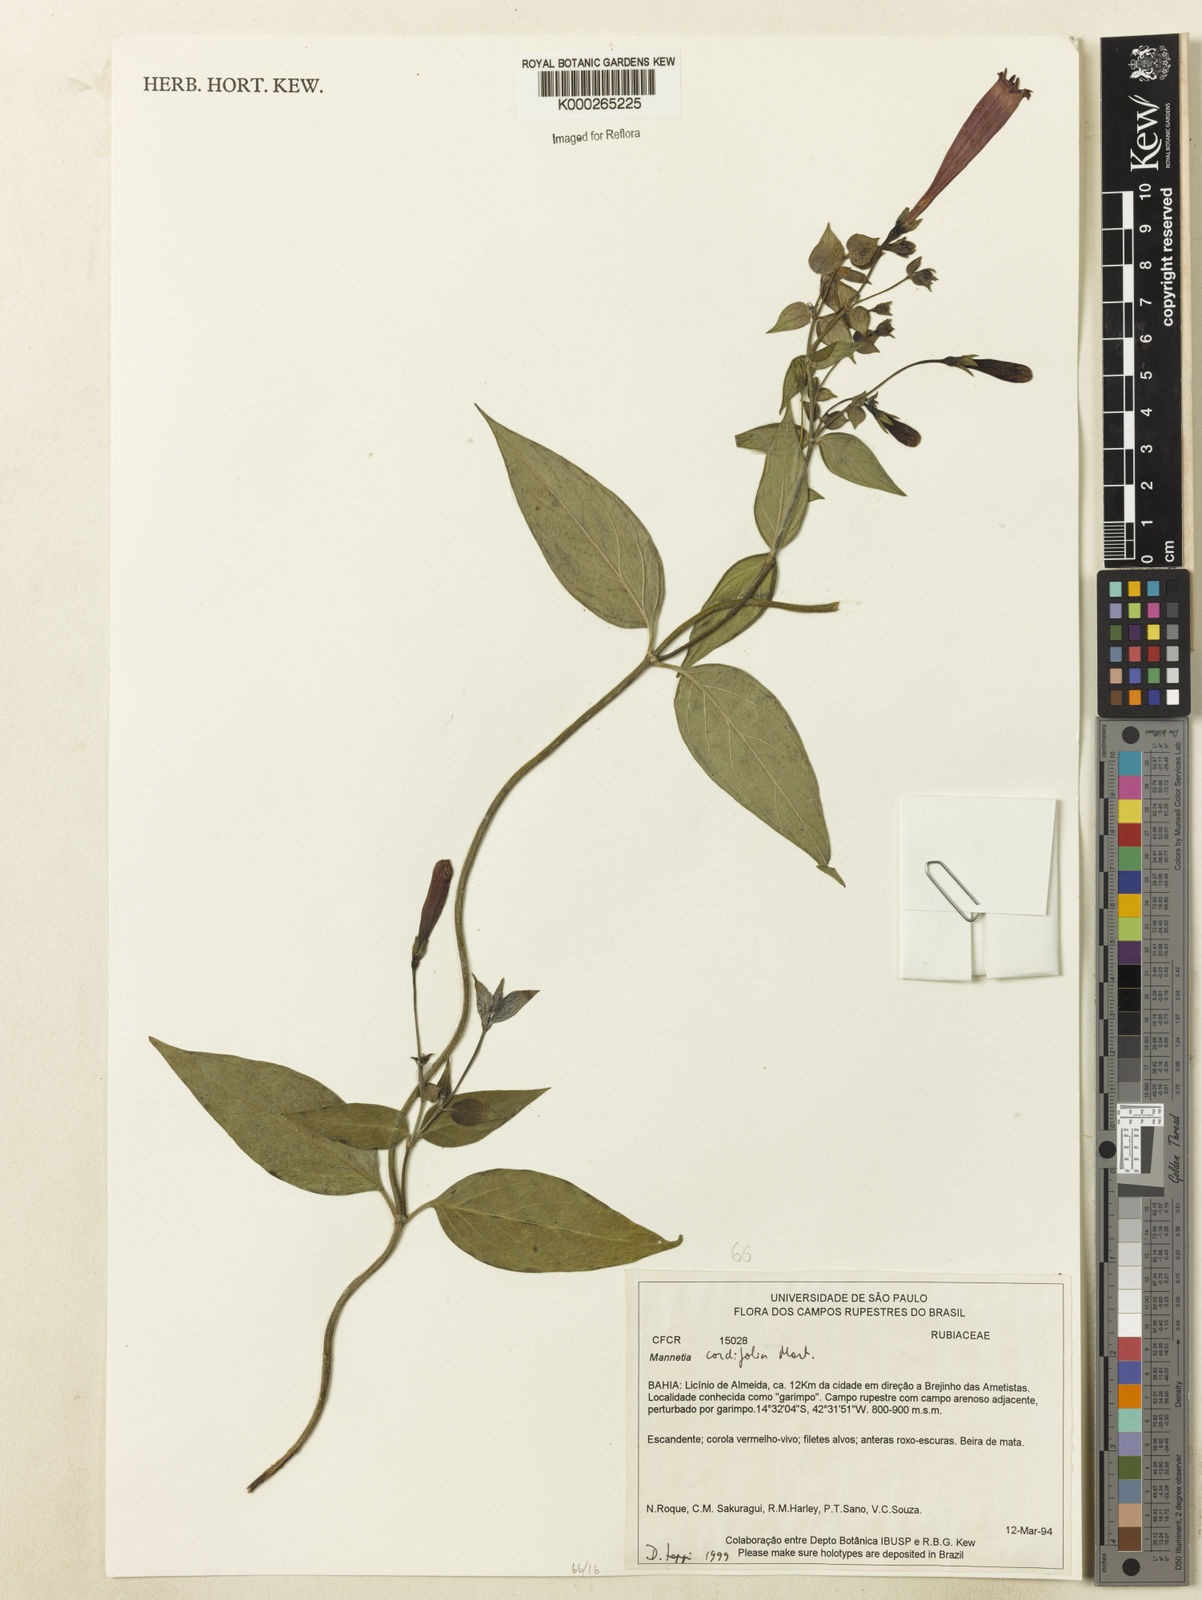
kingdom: Plantae
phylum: Tracheophyta
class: Magnoliopsida
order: Gentianales
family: Rubiaceae
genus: Manettia
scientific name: Manettia cordifolia
